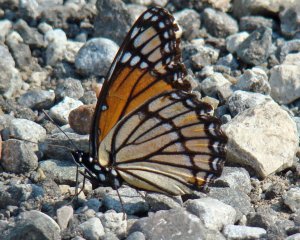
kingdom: Animalia
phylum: Arthropoda
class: Insecta
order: Lepidoptera
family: Nymphalidae
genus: Limenitis
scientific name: Limenitis archippus
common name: Viceroy
